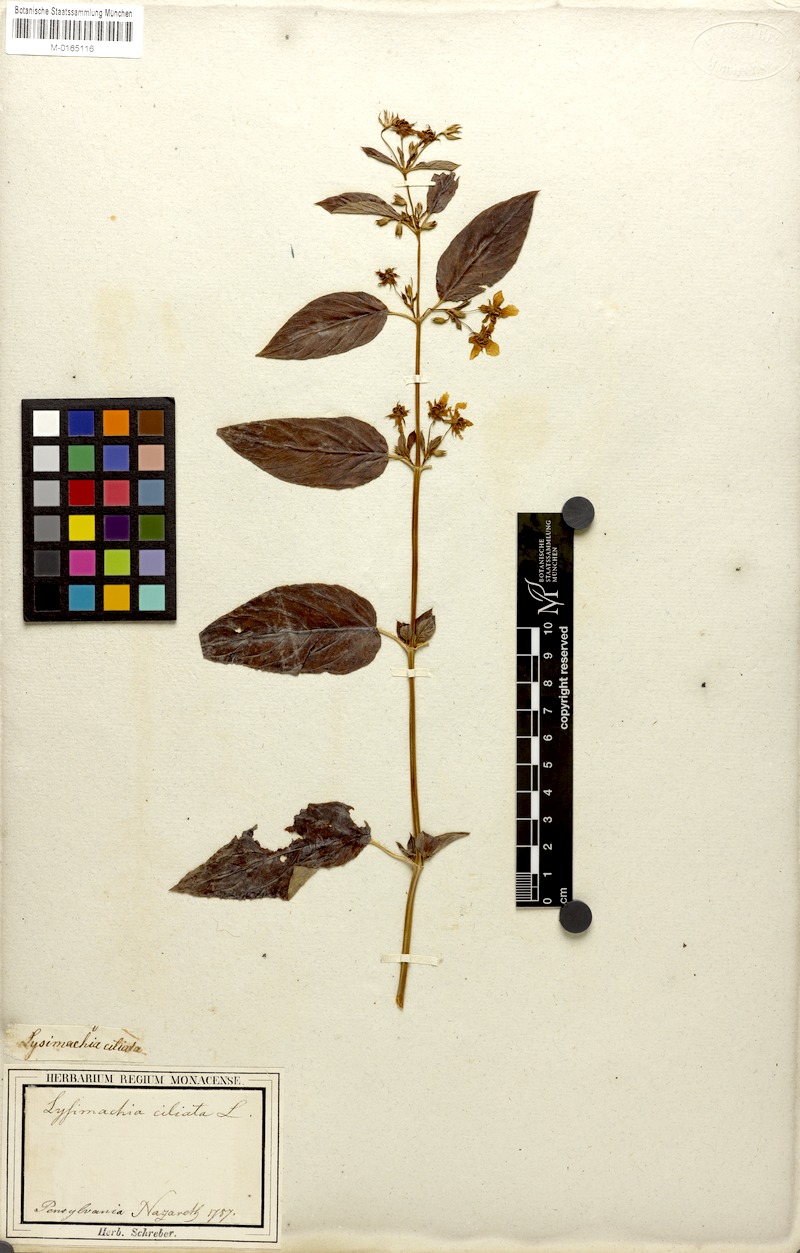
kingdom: Plantae
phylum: Tracheophyta
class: Magnoliopsida
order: Ericales
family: Primulaceae
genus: Lysimachia
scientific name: Lysimachia ciliata
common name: Fringed loosestrife
